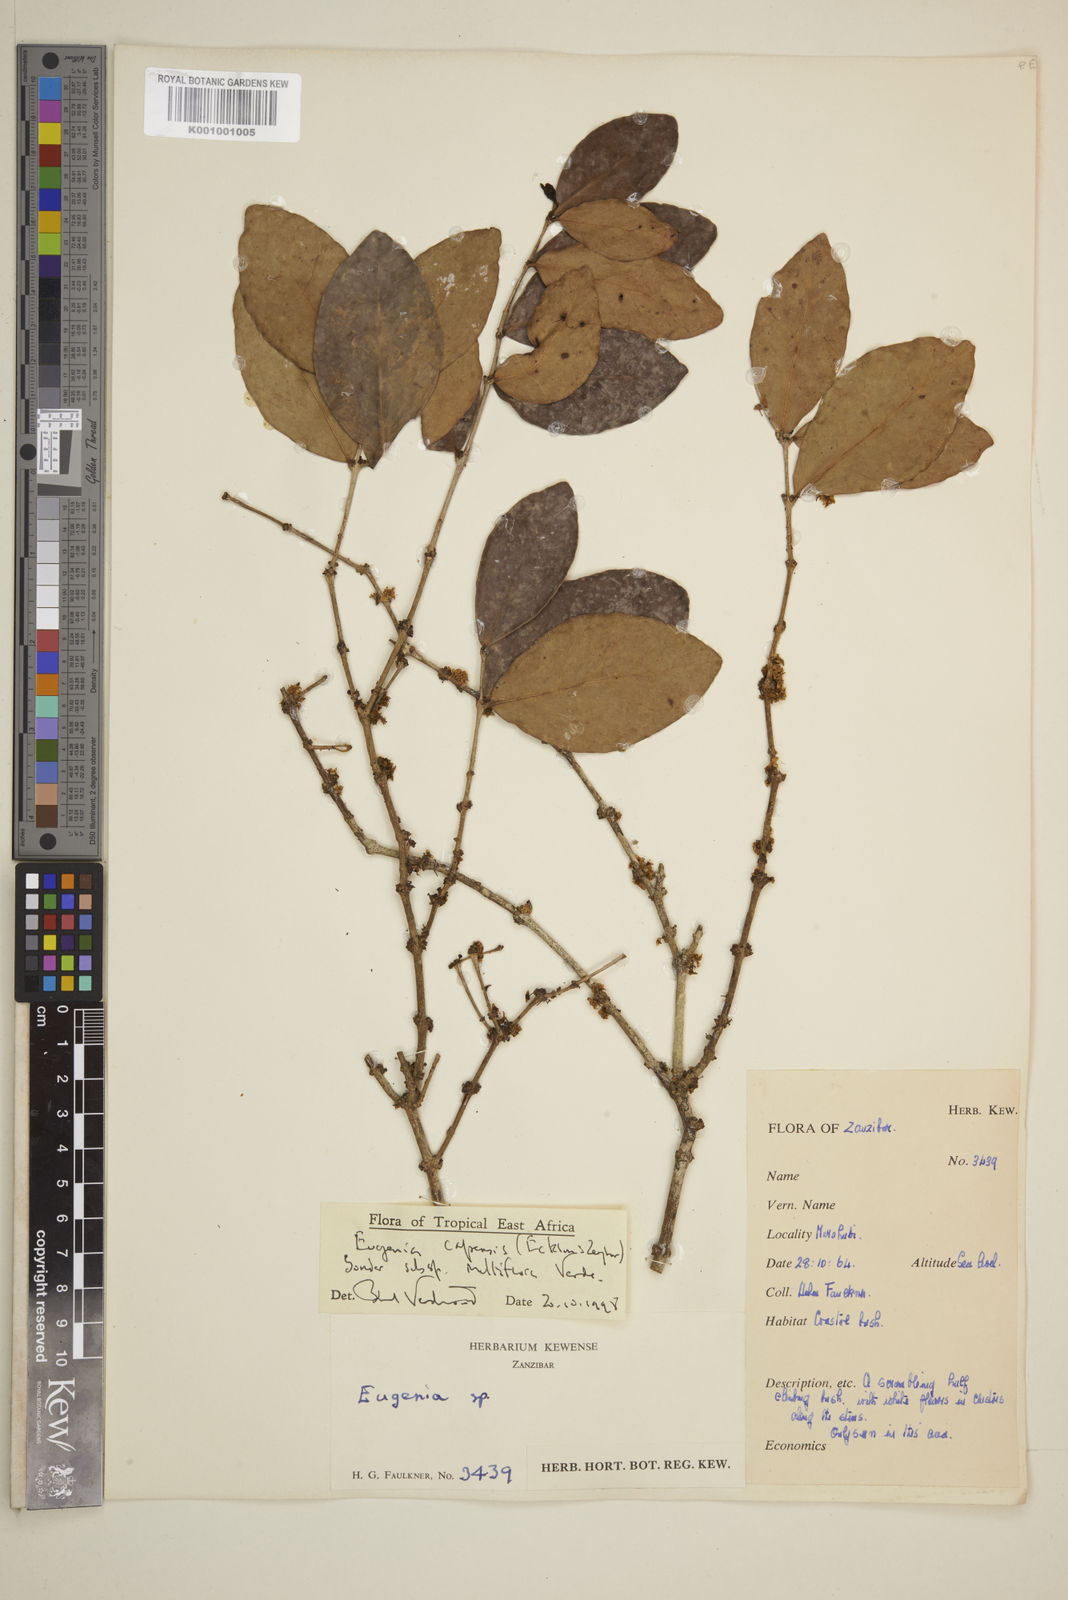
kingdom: Plantae
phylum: Tracheophyta
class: Magnoliopsida
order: Myrtales
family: Myrtaceae
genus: Eugenia
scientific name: Eugenia capensis
